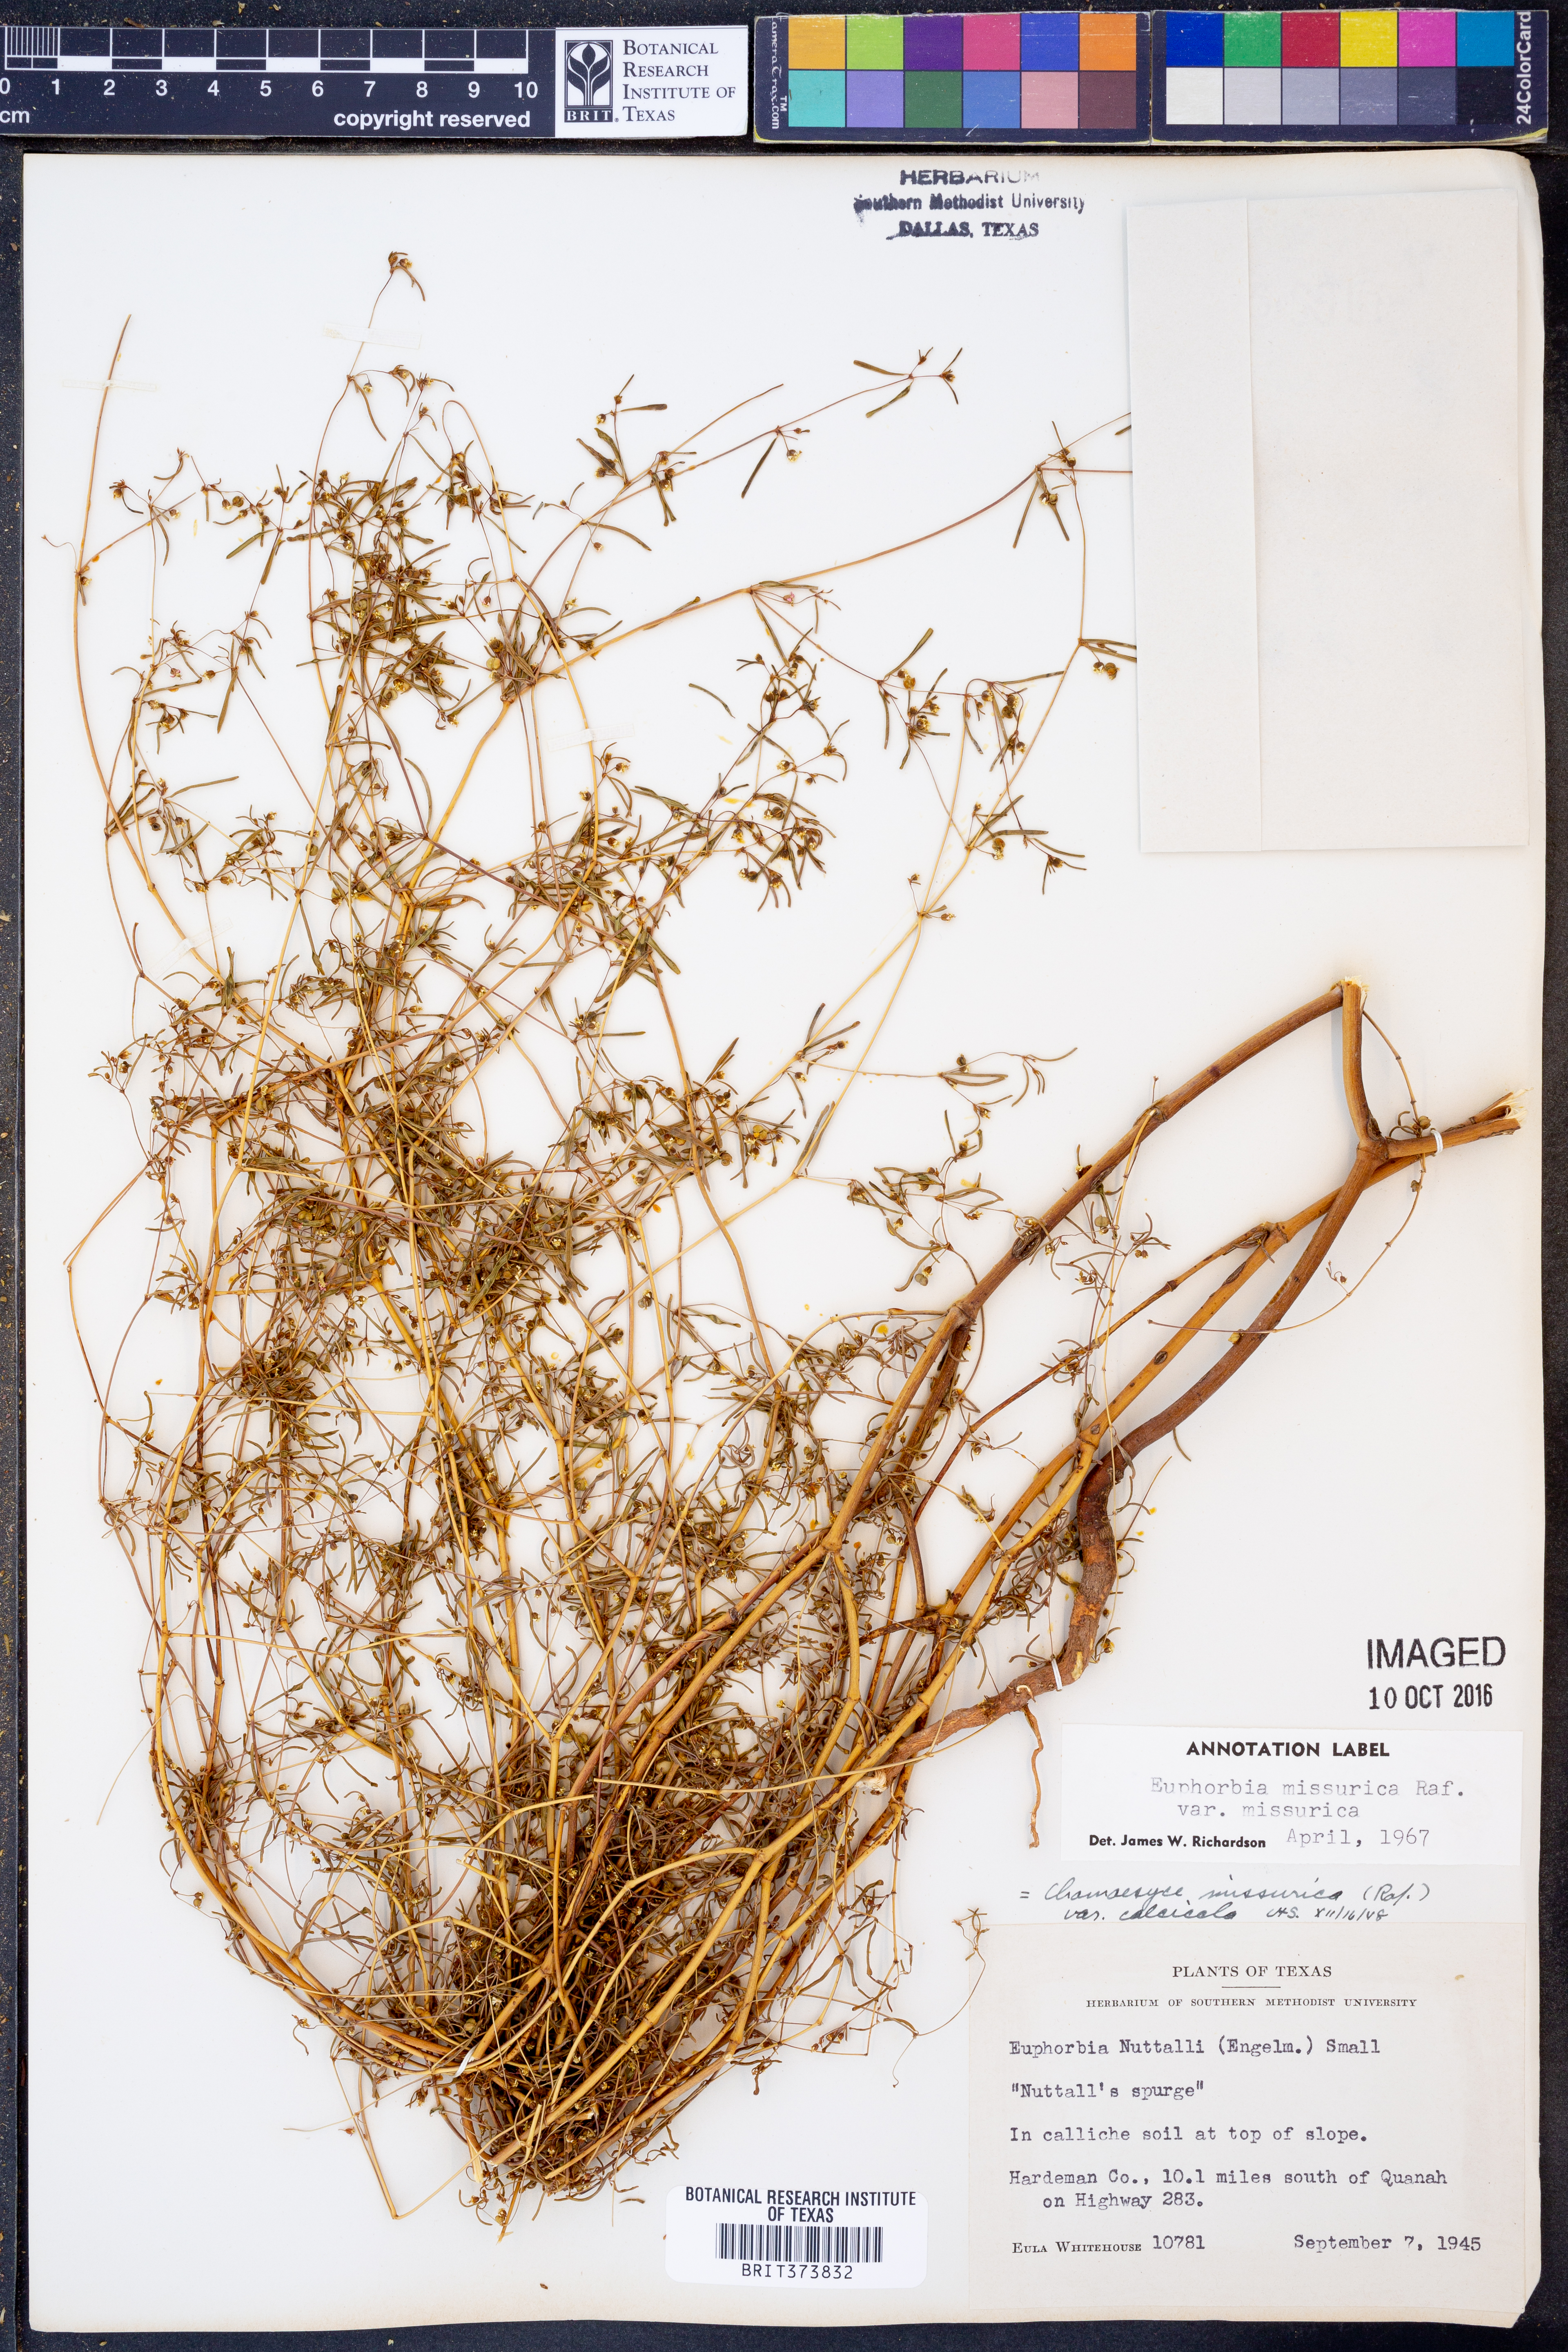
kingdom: Plantae
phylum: Tracheophyta
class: Magnoliopsida
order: Malpighiales
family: Euphorbiaceae
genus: Euphorbia
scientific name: Euphorbia missurica
